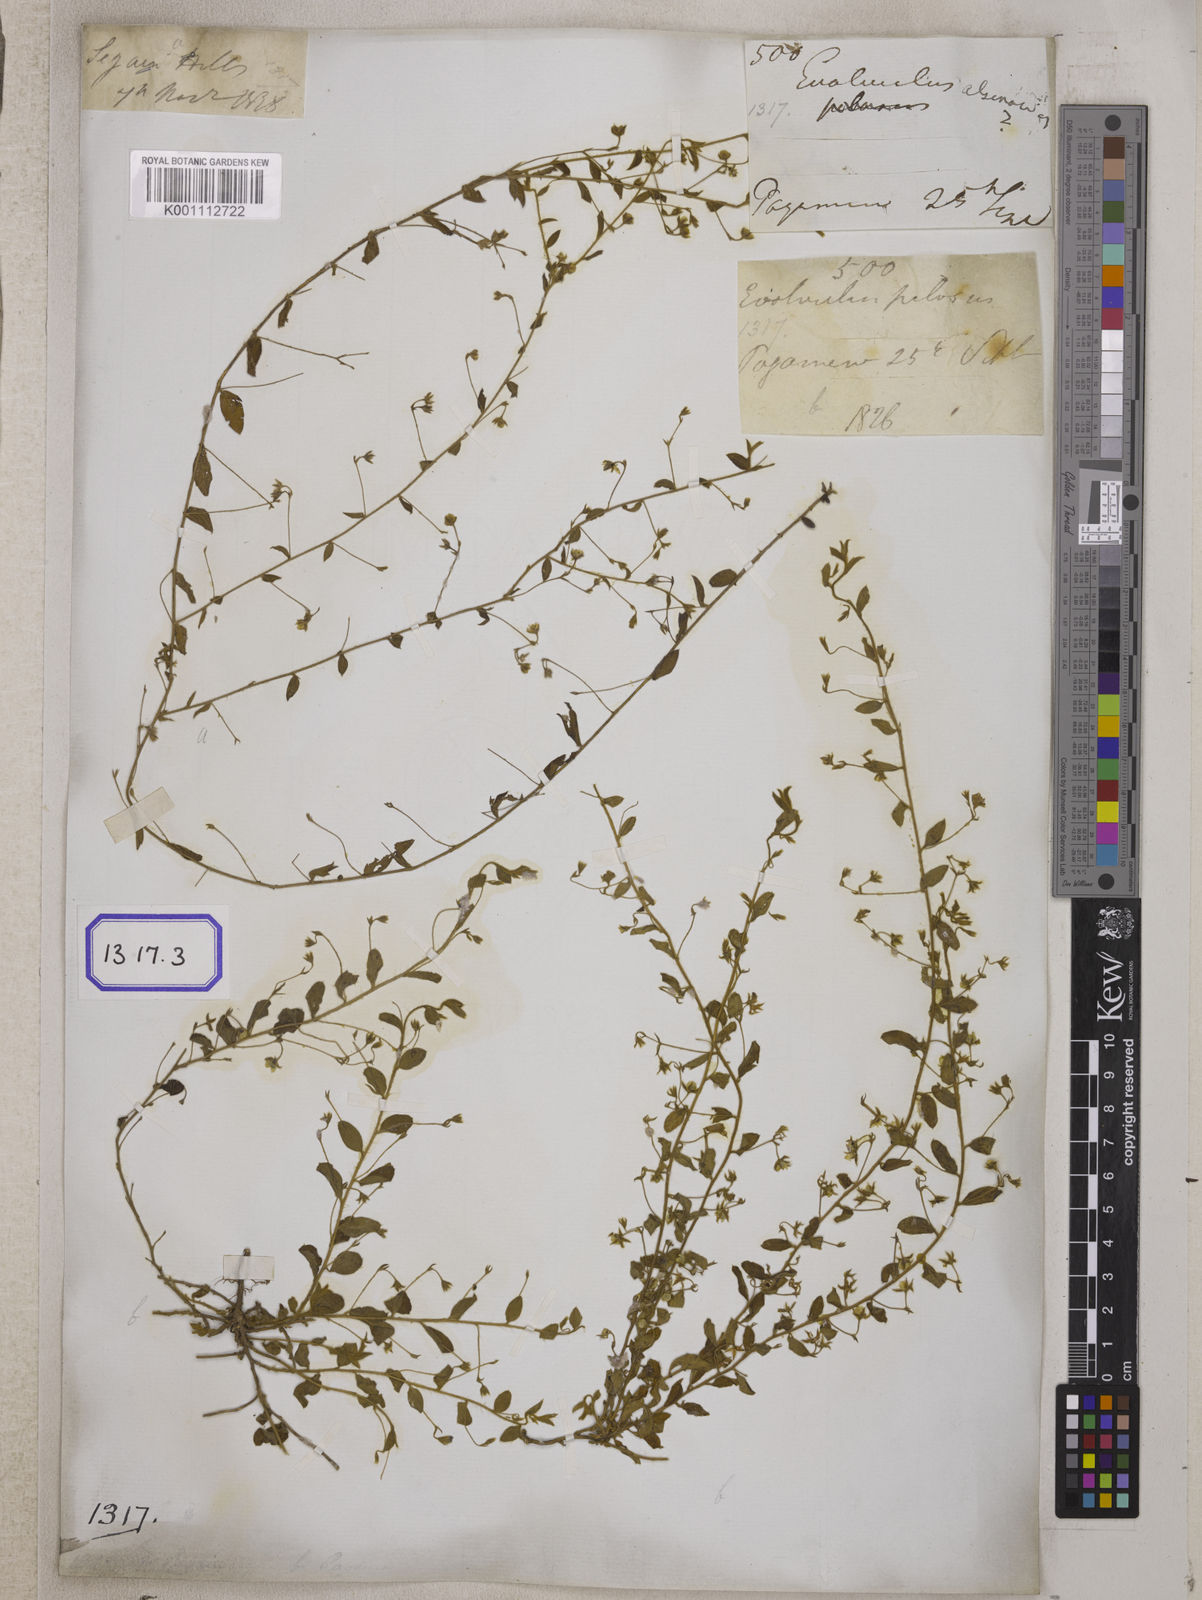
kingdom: Plantae
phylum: Tracheophyta
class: Magnoliopsida
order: Solanales
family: Convolvulaceae
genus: Evolvulus
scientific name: Evolvulus alsinoides
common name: Slender dwarf morning-glory
